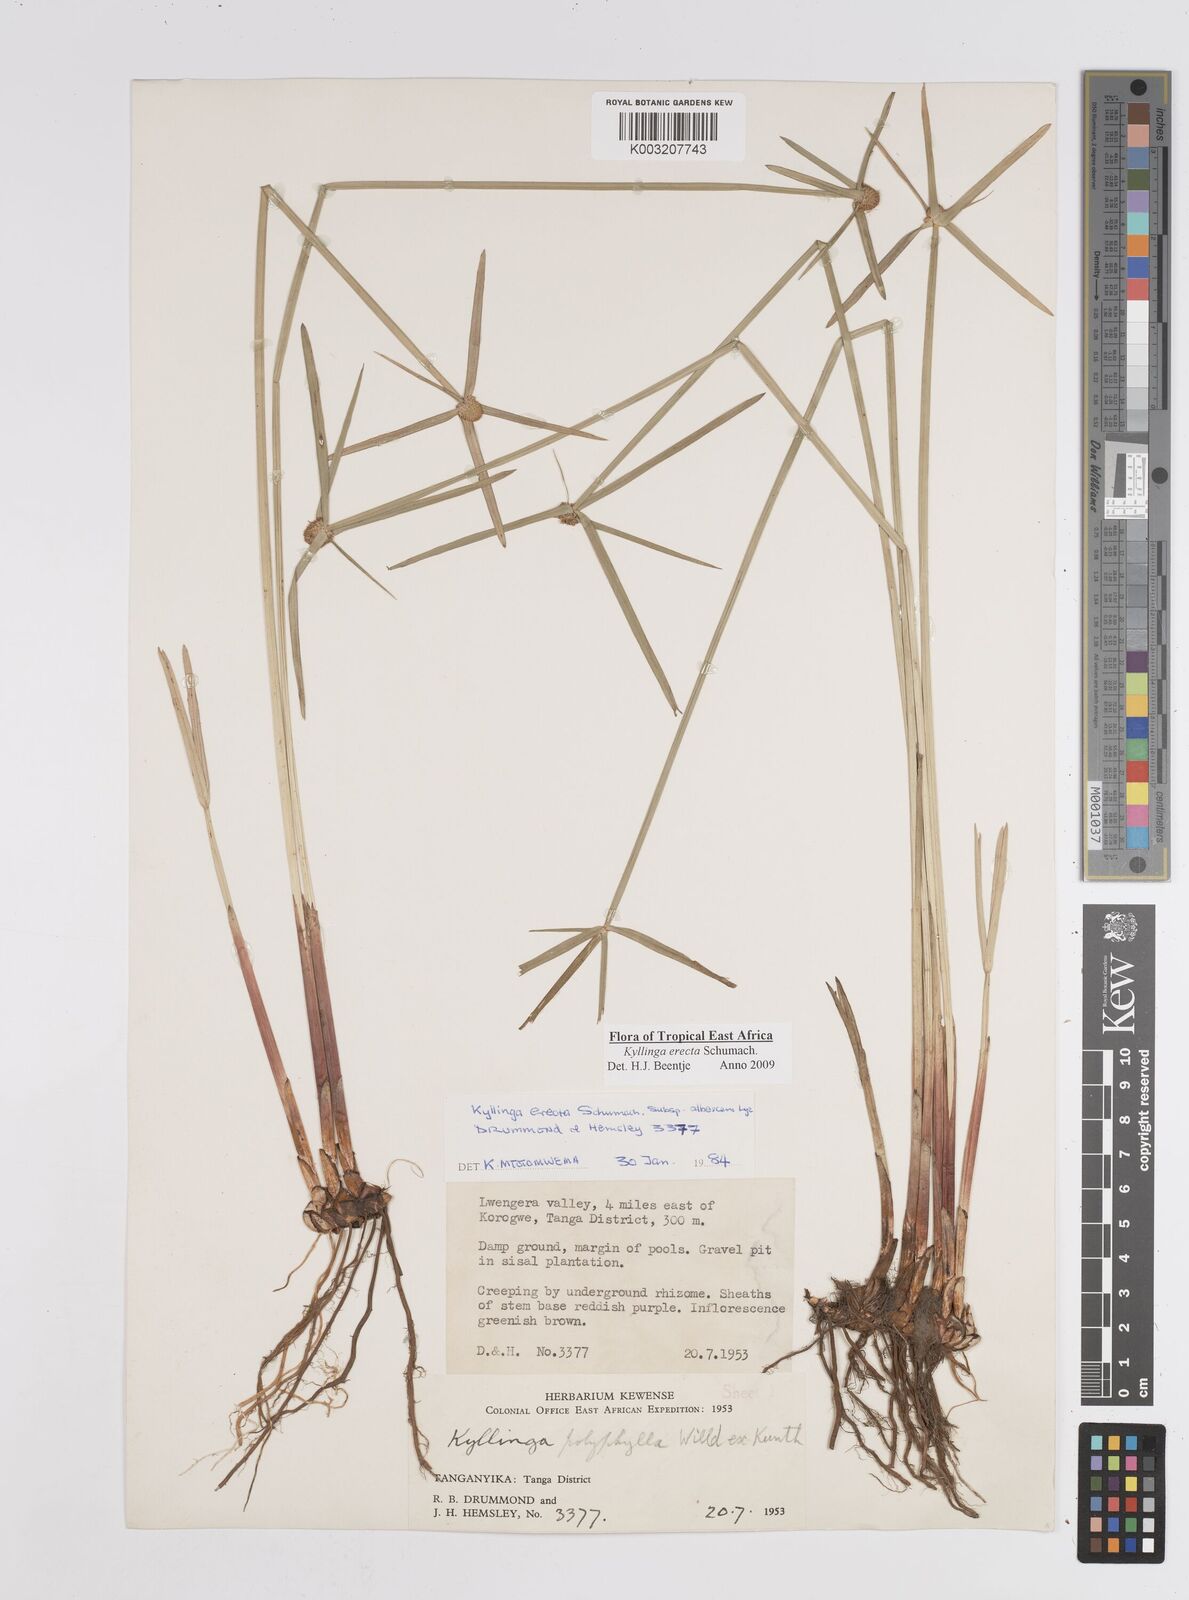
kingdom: Plantae
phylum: Tracheophyta
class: Liliopsida
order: Poales
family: Cyperaceae
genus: Cyperus
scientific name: Cyperus erectus
